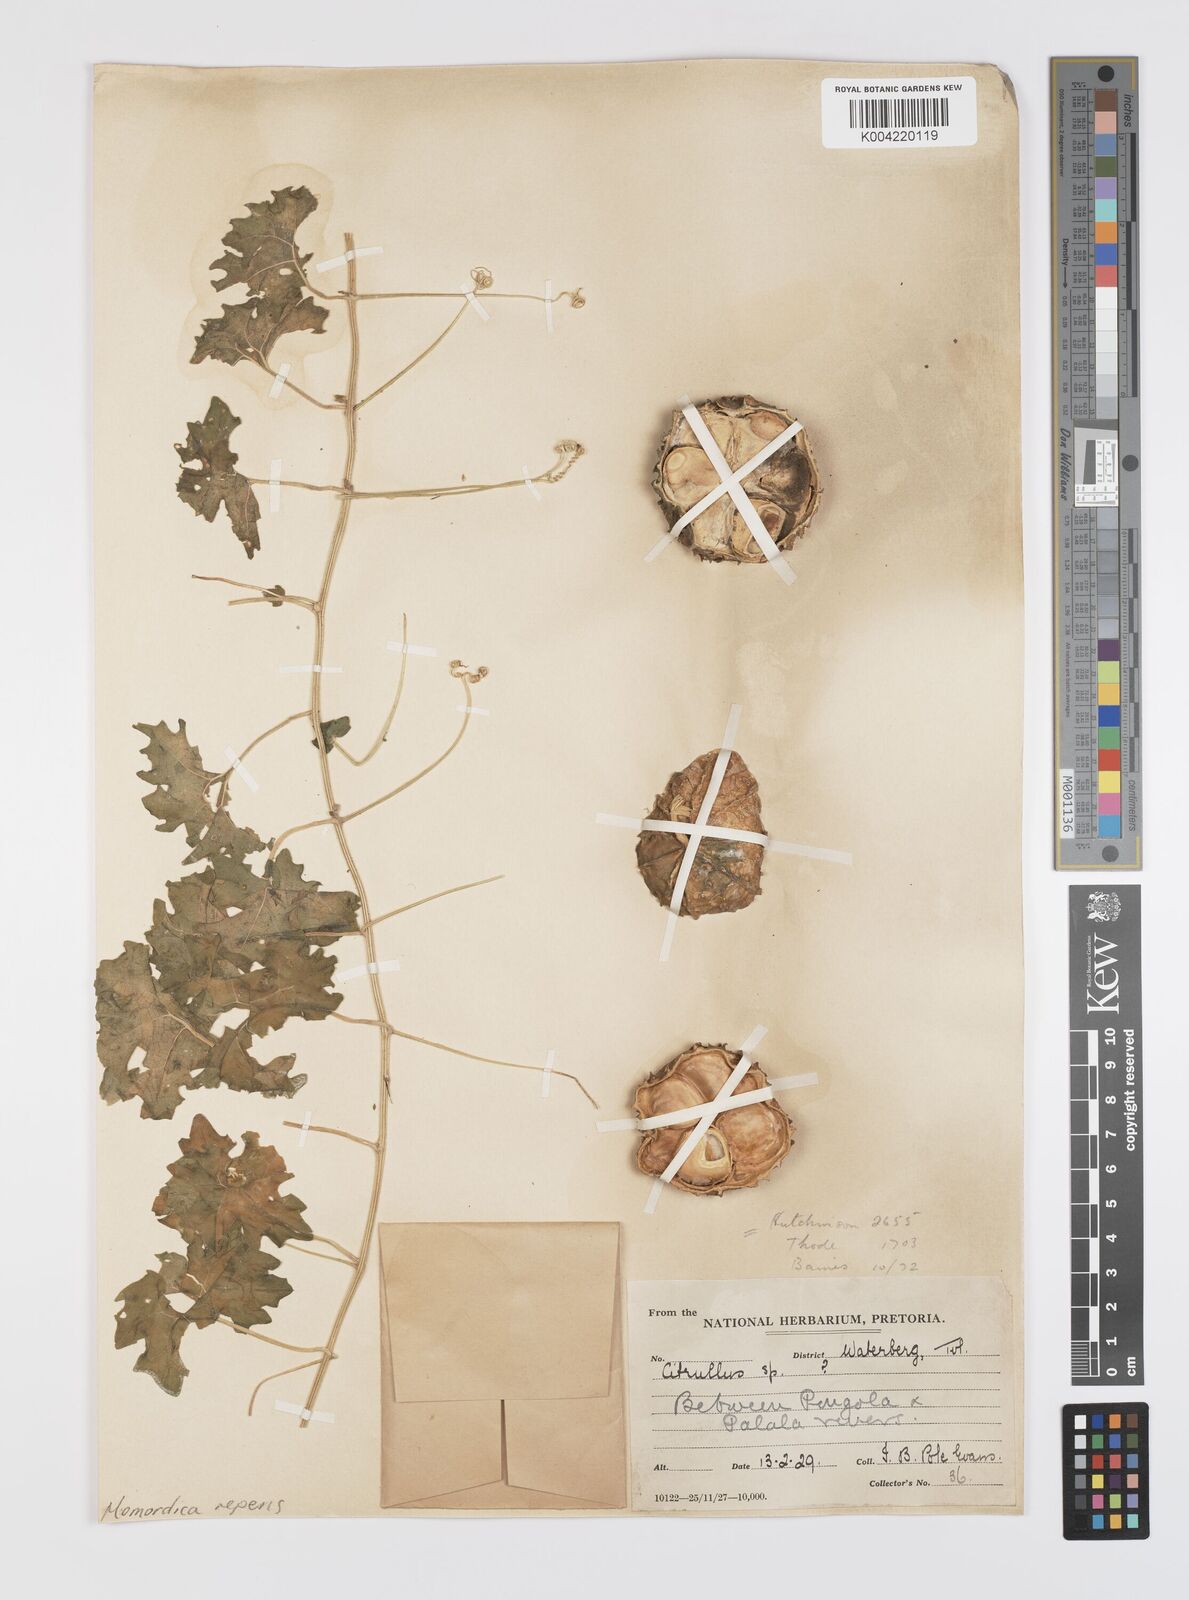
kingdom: Plantae
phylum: Tracheophyta
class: Magnoliopsida
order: Cucurbitales
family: Cucurbitaceae
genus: Momordica
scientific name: Momordica repens
